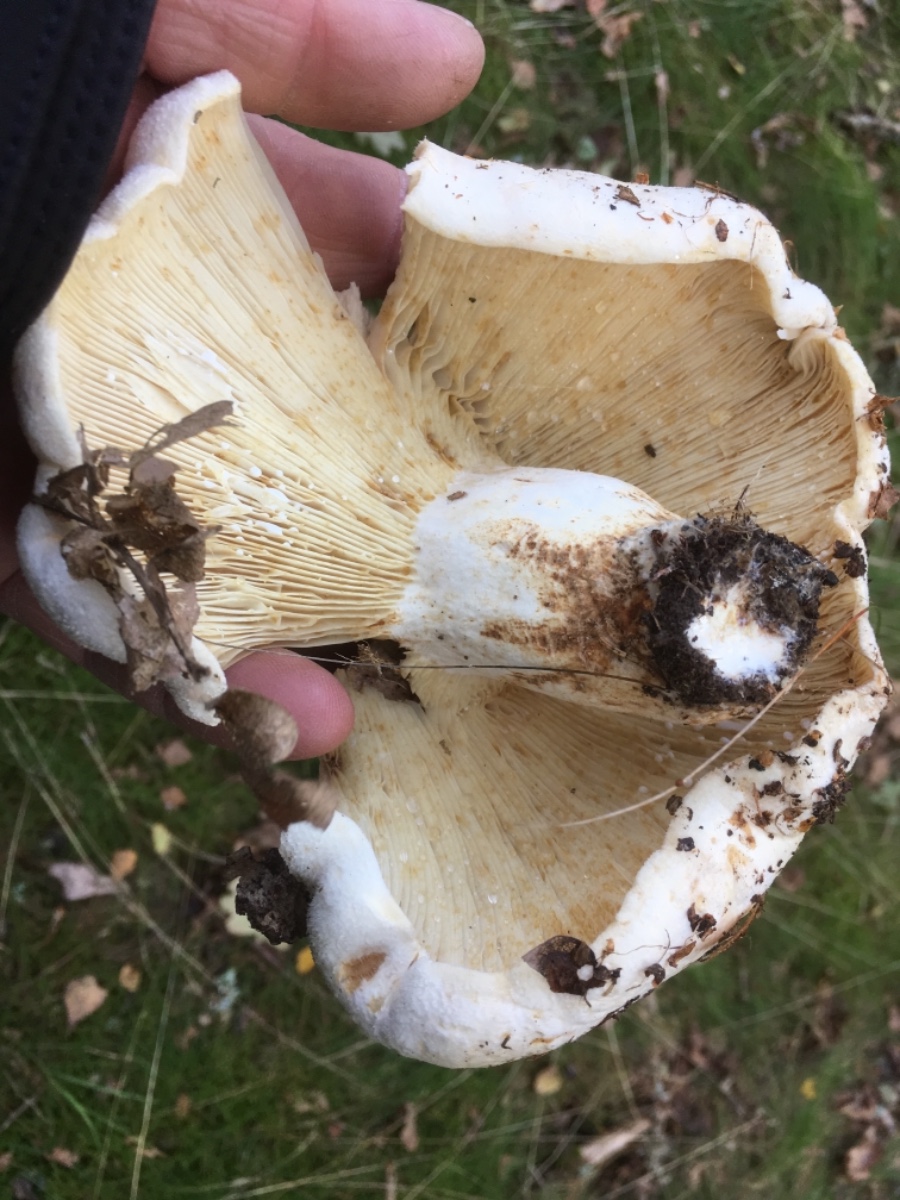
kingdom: Fungi
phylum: Basidiomycota
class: Agaricomycetes
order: Russulales
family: Russulaceae
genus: Lactifluus
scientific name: Lactifluus vellereus
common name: hvidfiltet mælkehat
